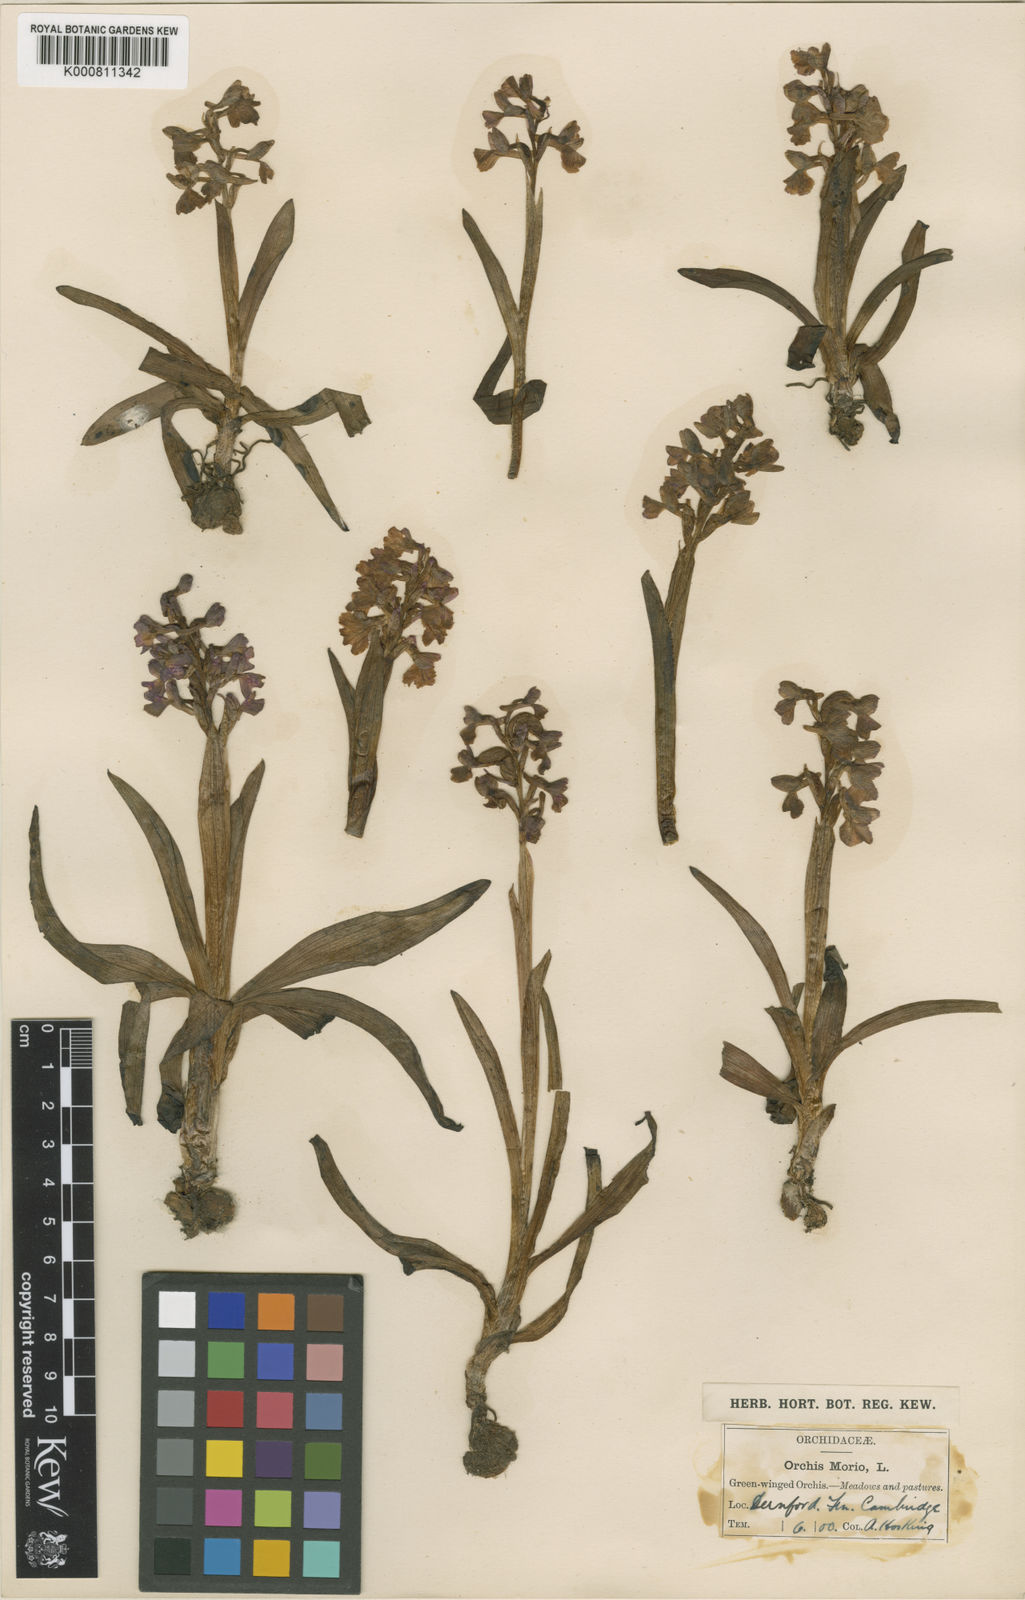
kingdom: Plantae
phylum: Tracheophyta
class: Liliopsida
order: Asparagales
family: Orchidaceae
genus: Anacamptis
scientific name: Anacamptis morio
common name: Green-winged orchid
